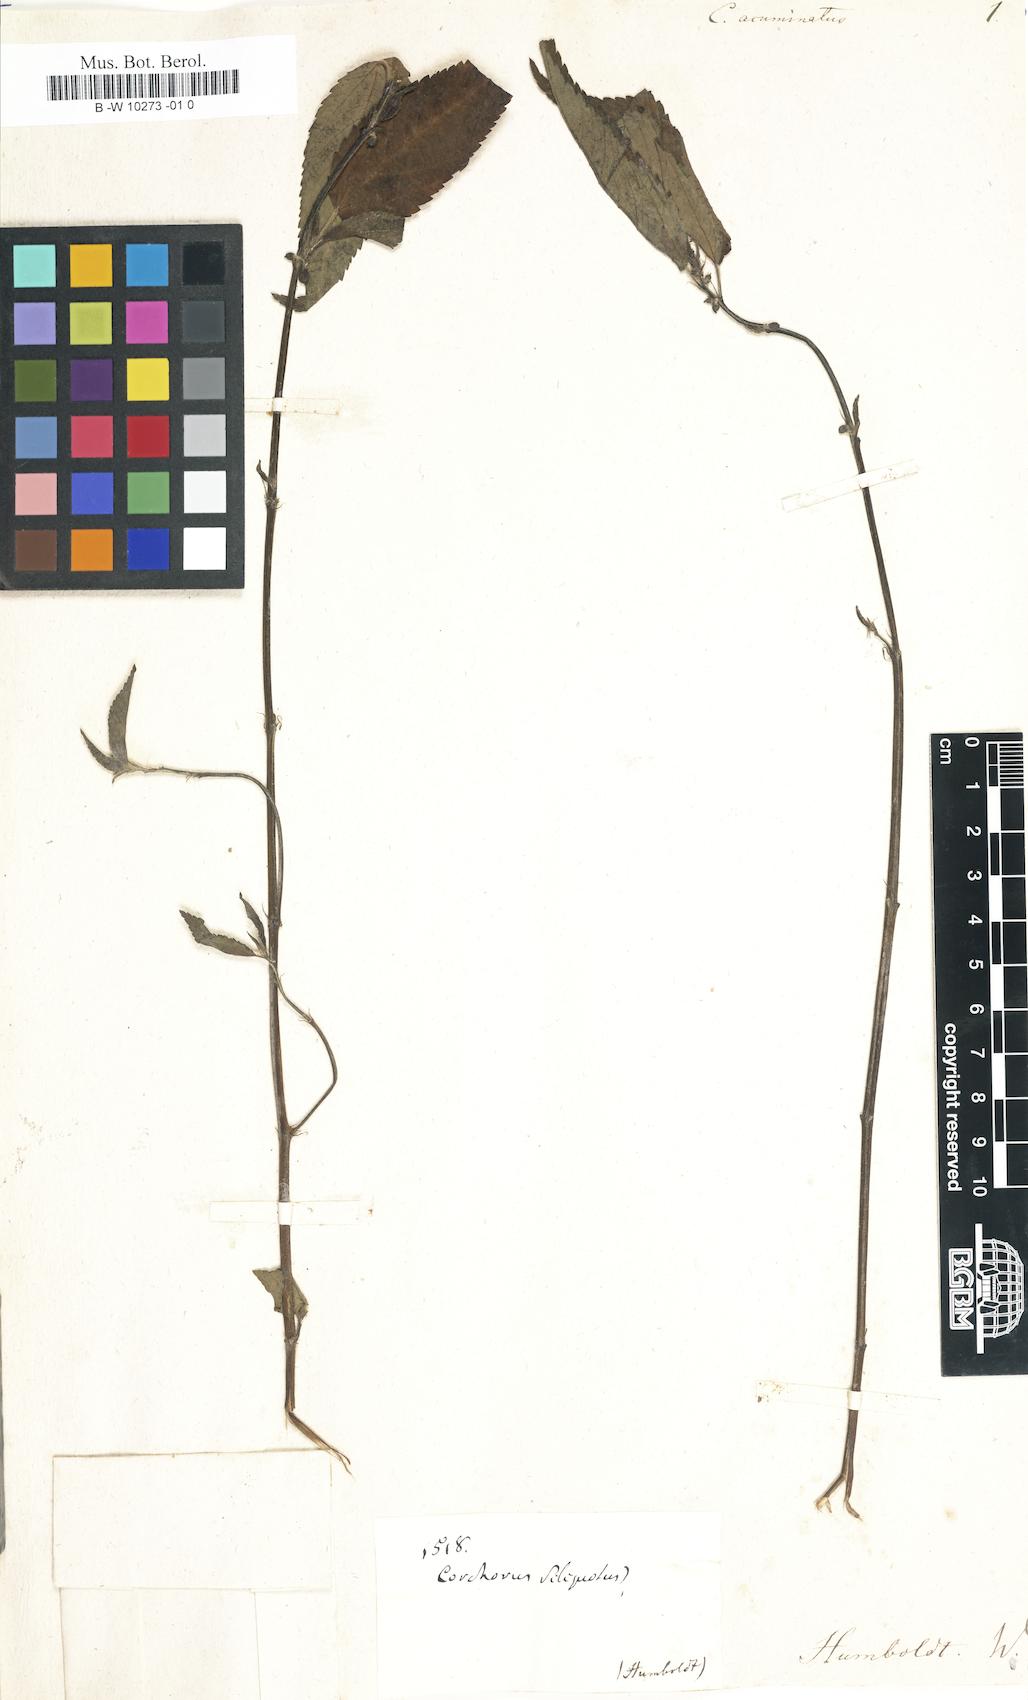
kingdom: Plantae
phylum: Tracheophyta
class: Magnoliopsida
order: Malvales
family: Malvaceae
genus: Corchorus
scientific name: Corchorus
